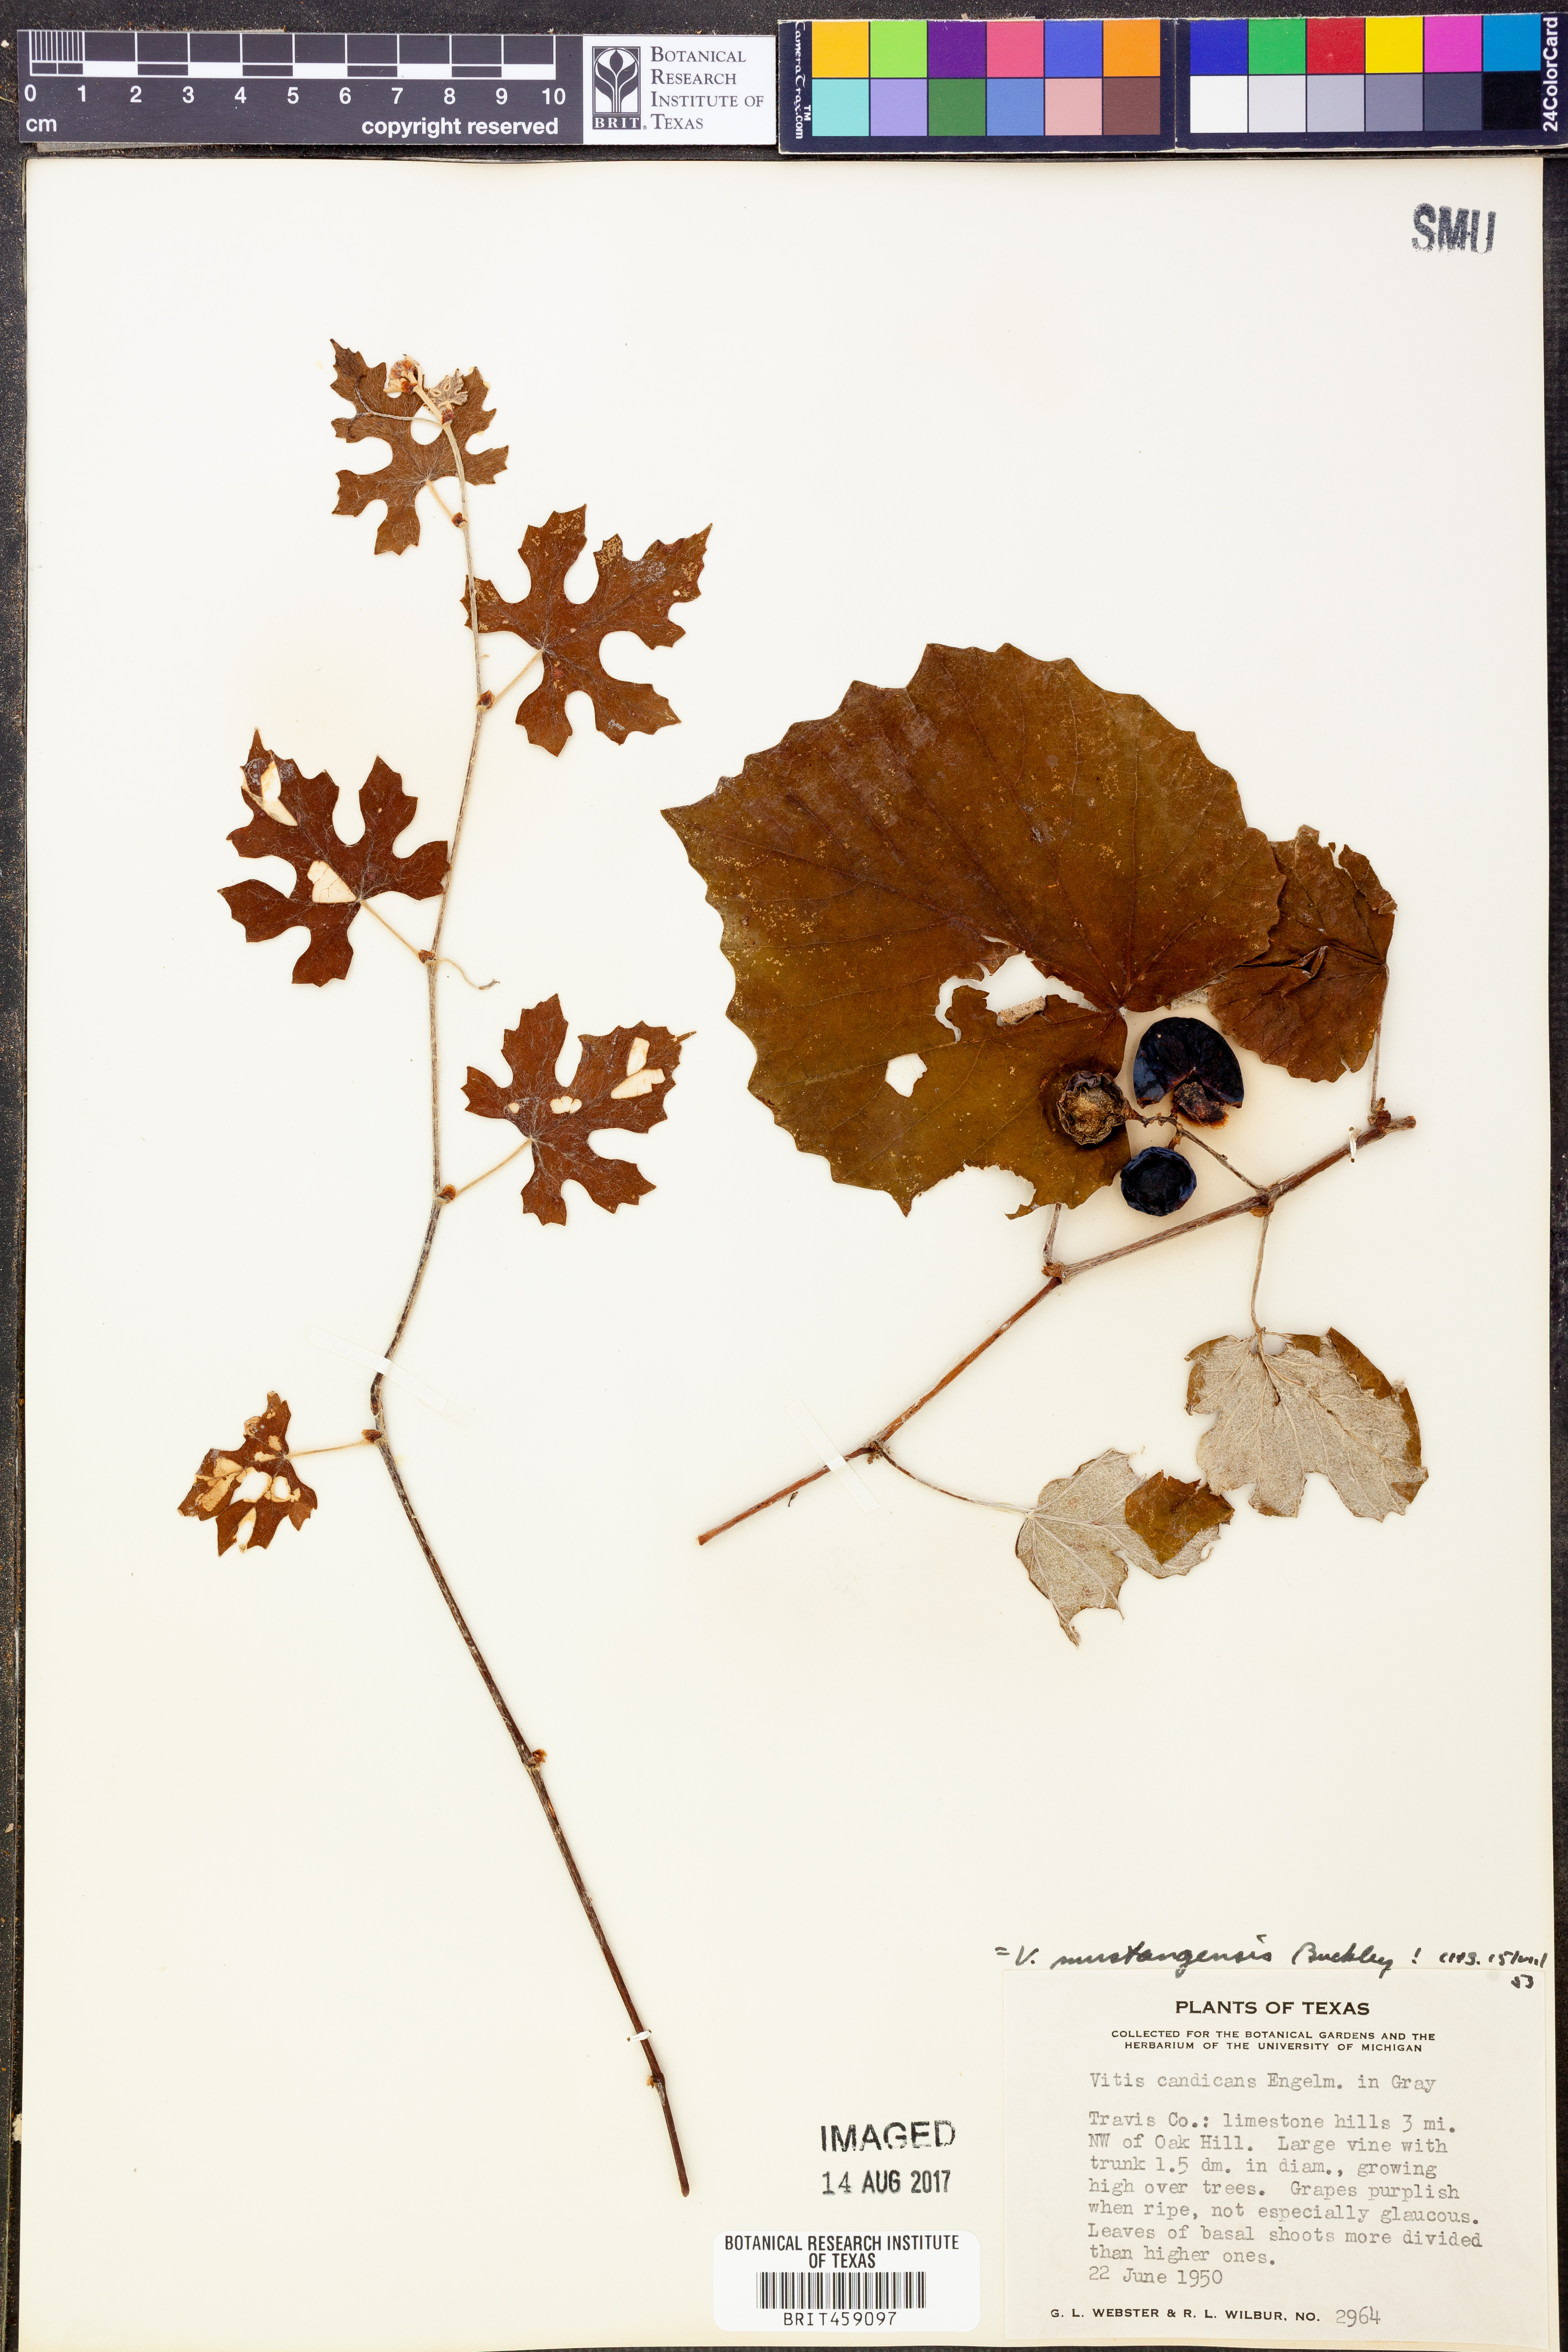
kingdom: Plantae
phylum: Tracheophyta
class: Magnoliopsida
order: Vitales
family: Vitaceae
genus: Vitis
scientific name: Vitis mustangensis
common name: Mustang grape
